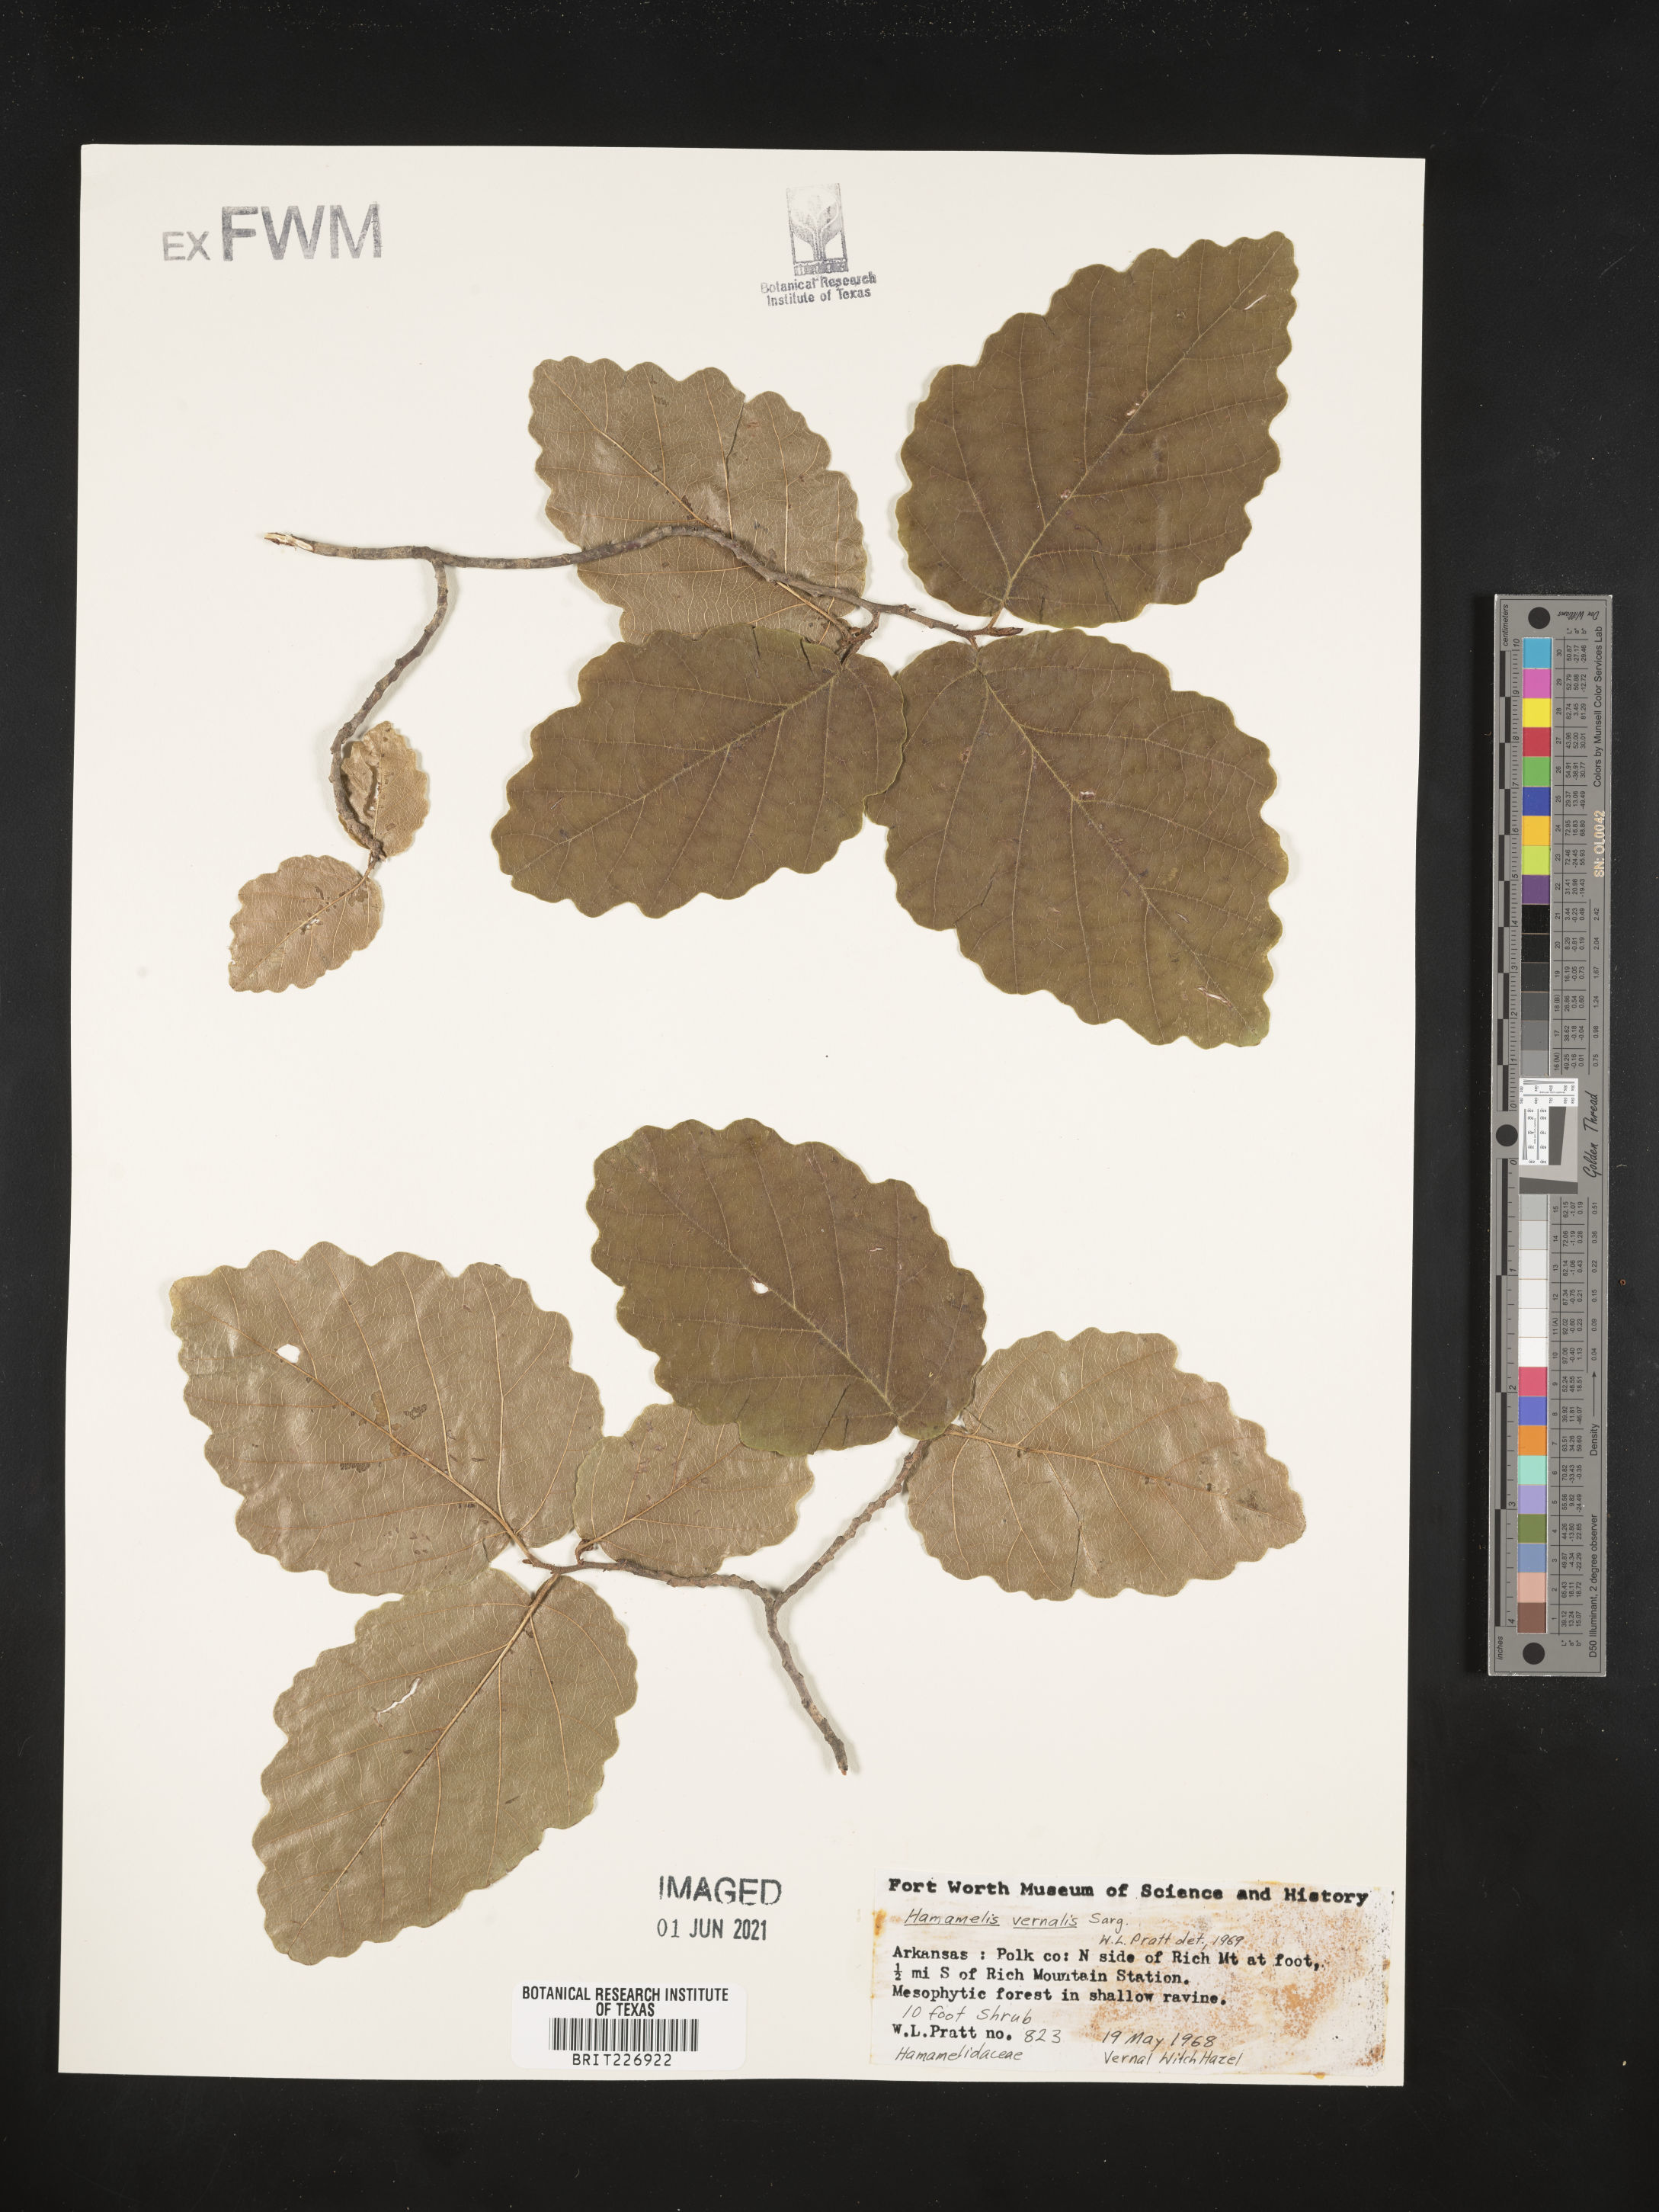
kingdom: Plantae
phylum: Tracheophyta
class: Magnoliopsida
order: Saxifragales
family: Hamamelidaceae
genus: Hamamelis
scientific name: Hamamelis vernalis
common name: Ozark witch-hazel
